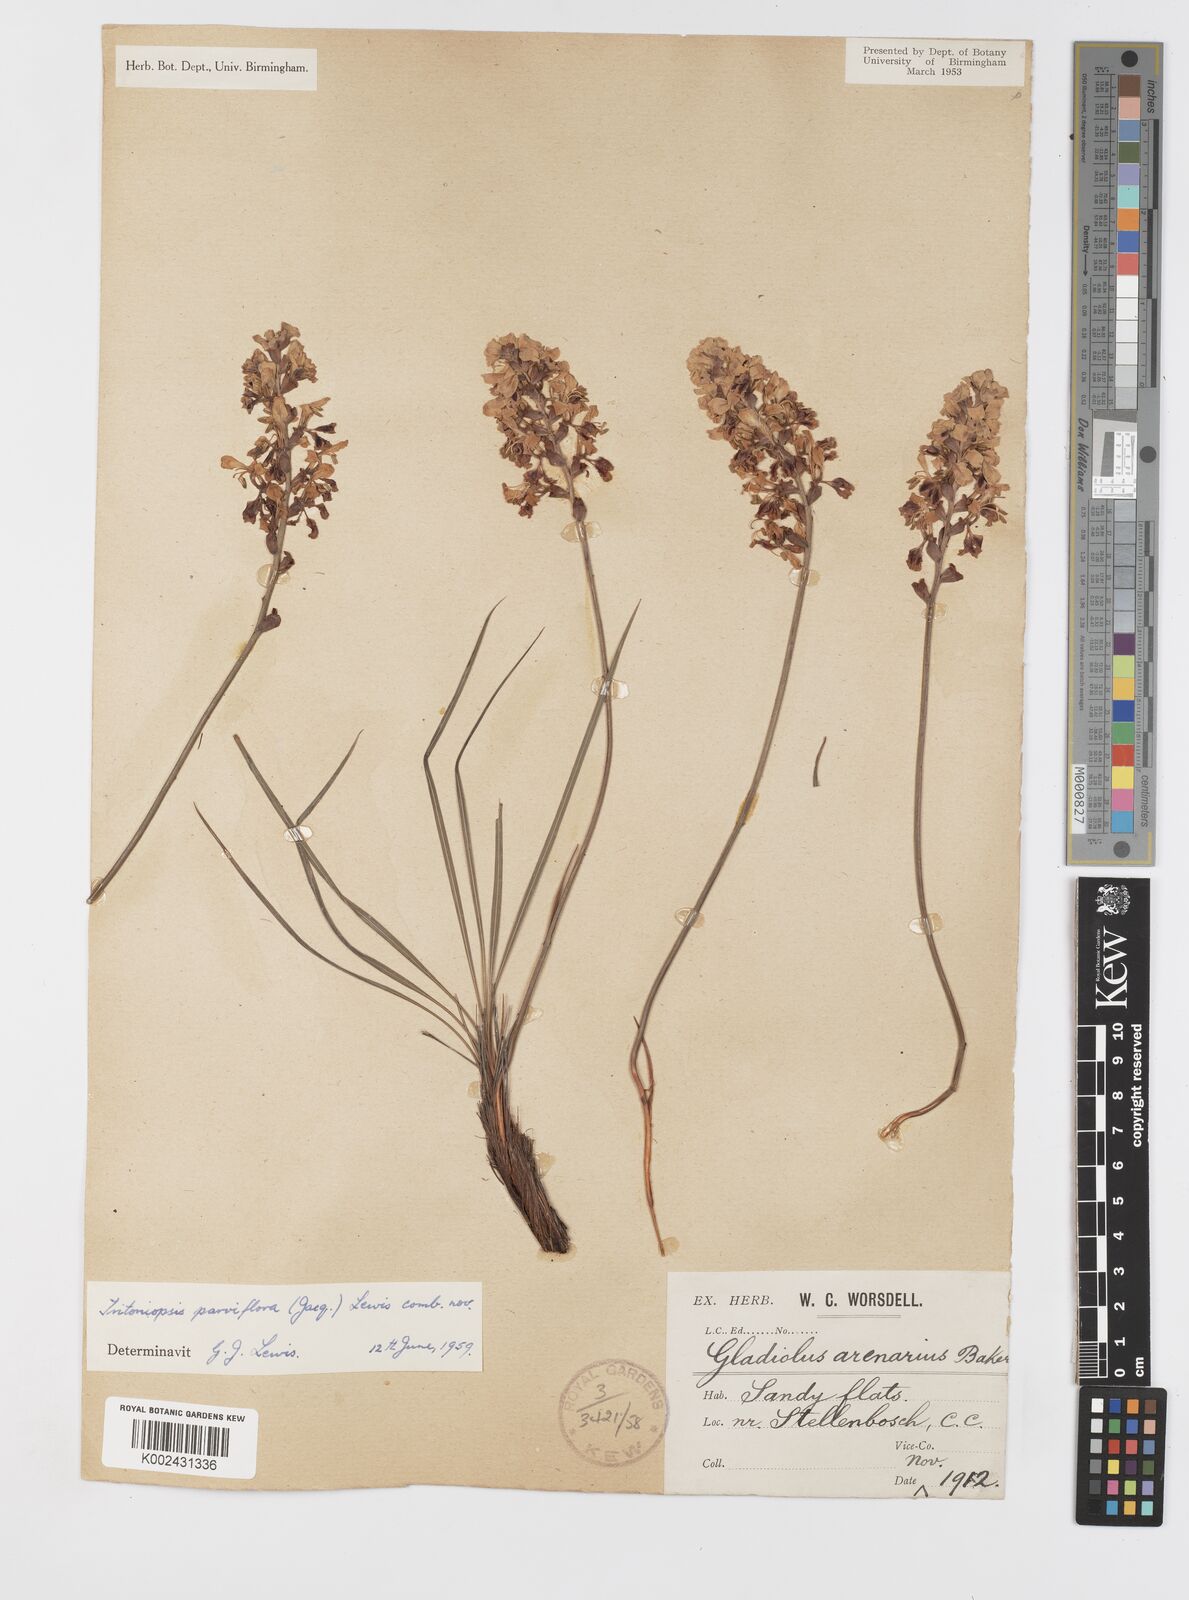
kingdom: Plantae
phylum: Tracheophyta
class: Liliopsida
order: Asparagales
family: Iridaceae
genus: Tritoniopsis
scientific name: Tritoniopsis parviflora
